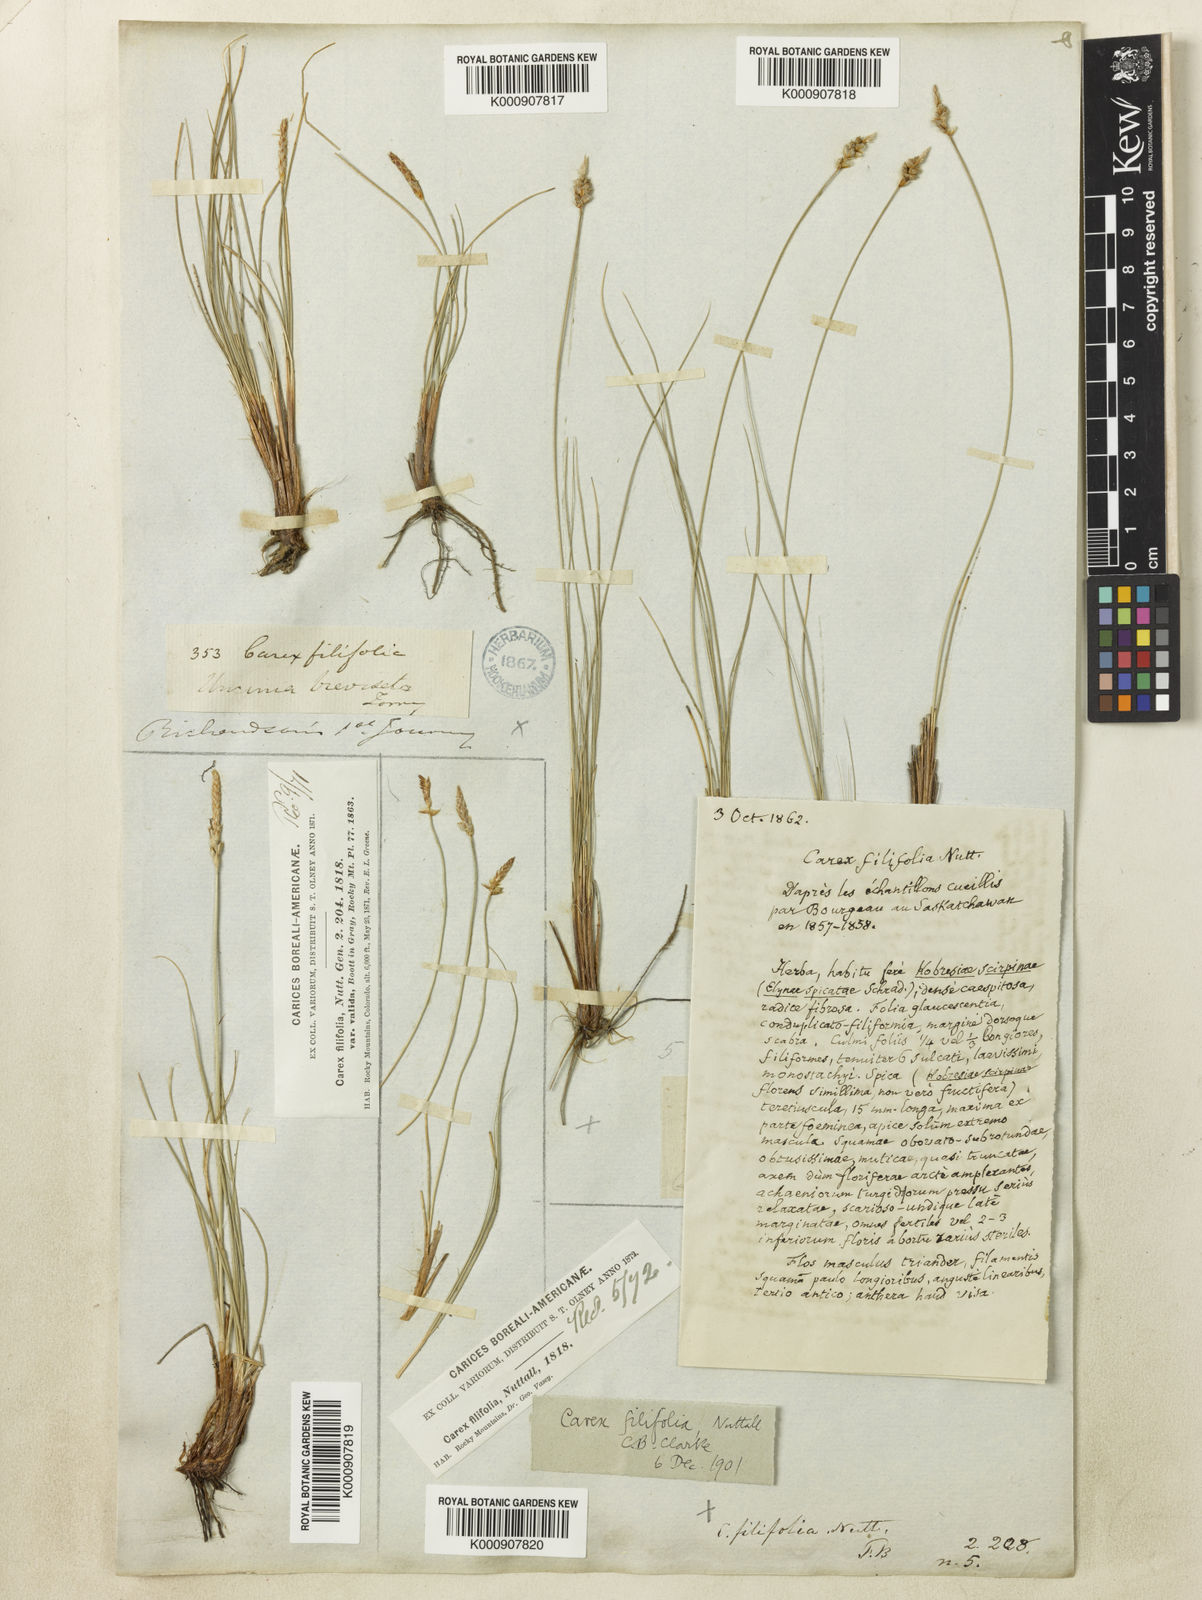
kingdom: Plantae
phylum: Tracheophyta
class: Liliopsida
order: Poales
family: Cyperaceae
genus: Carex
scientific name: Carex filifolia
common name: Threadleaf sedge
